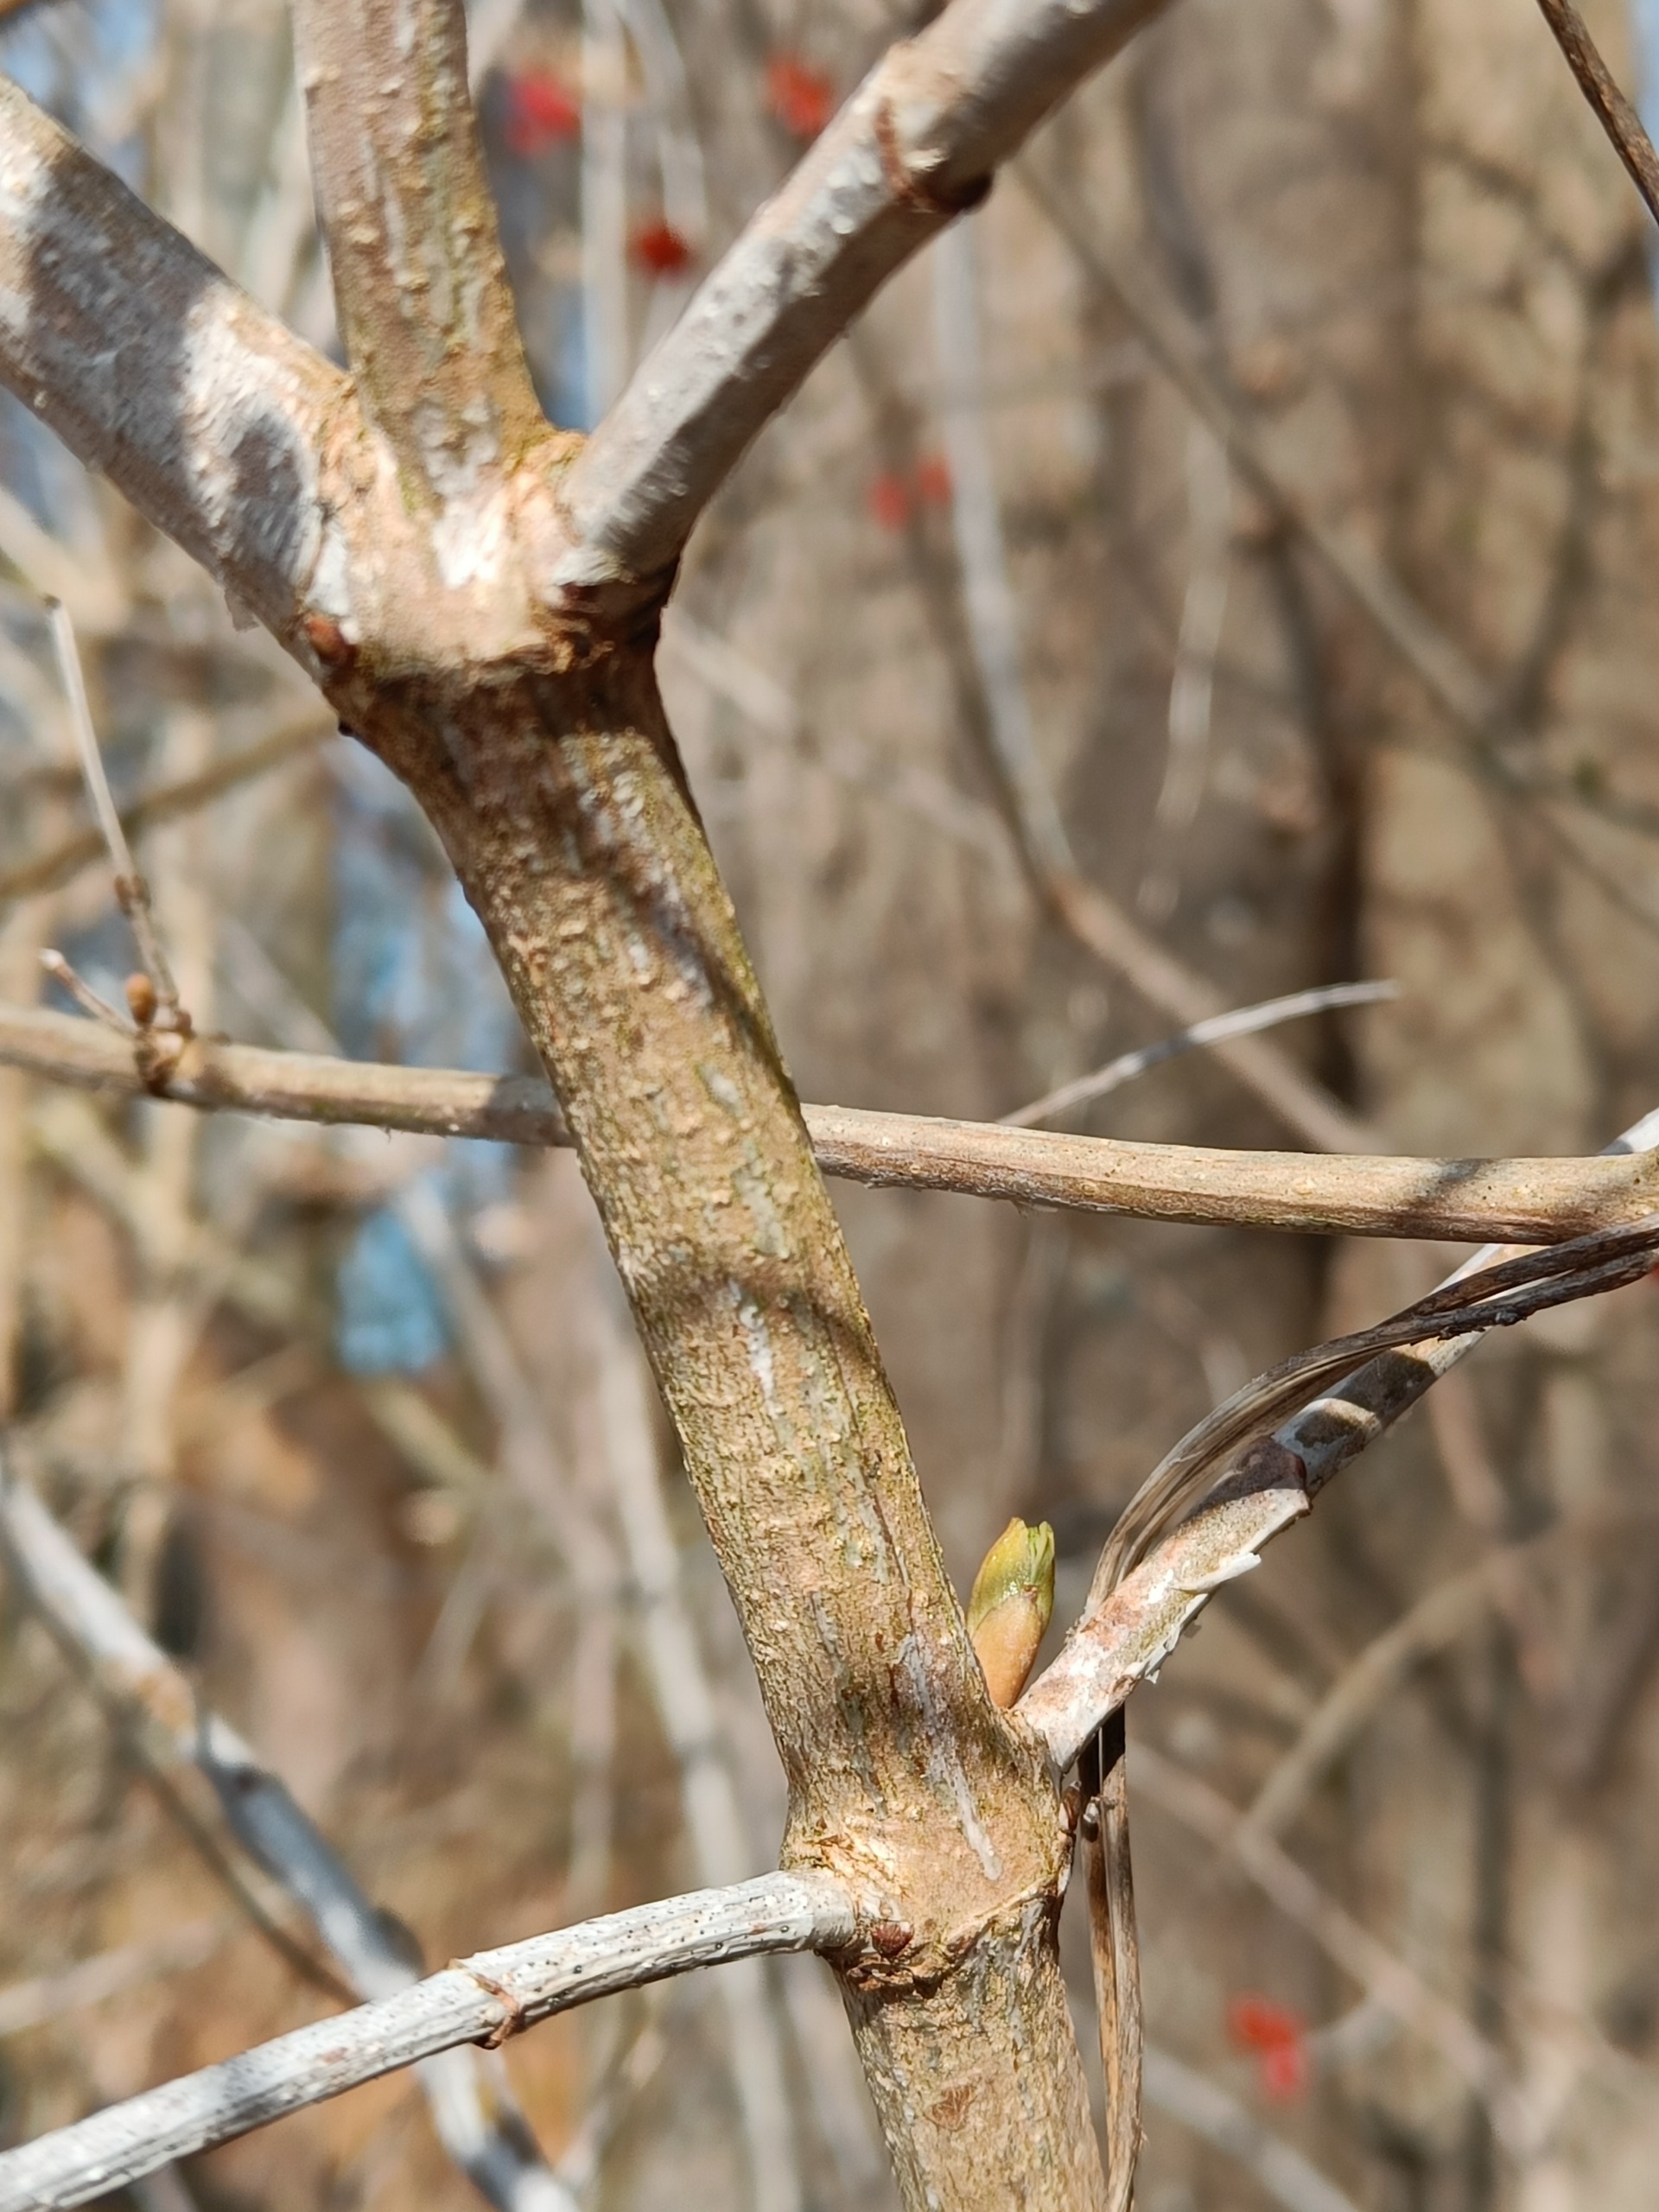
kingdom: Plantae
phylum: Tracheophyta
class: Magnoliopsida
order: Dipsacales
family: Viburnaceae
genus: Viburnum
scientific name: Viburnum opulus
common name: Kvalkved
